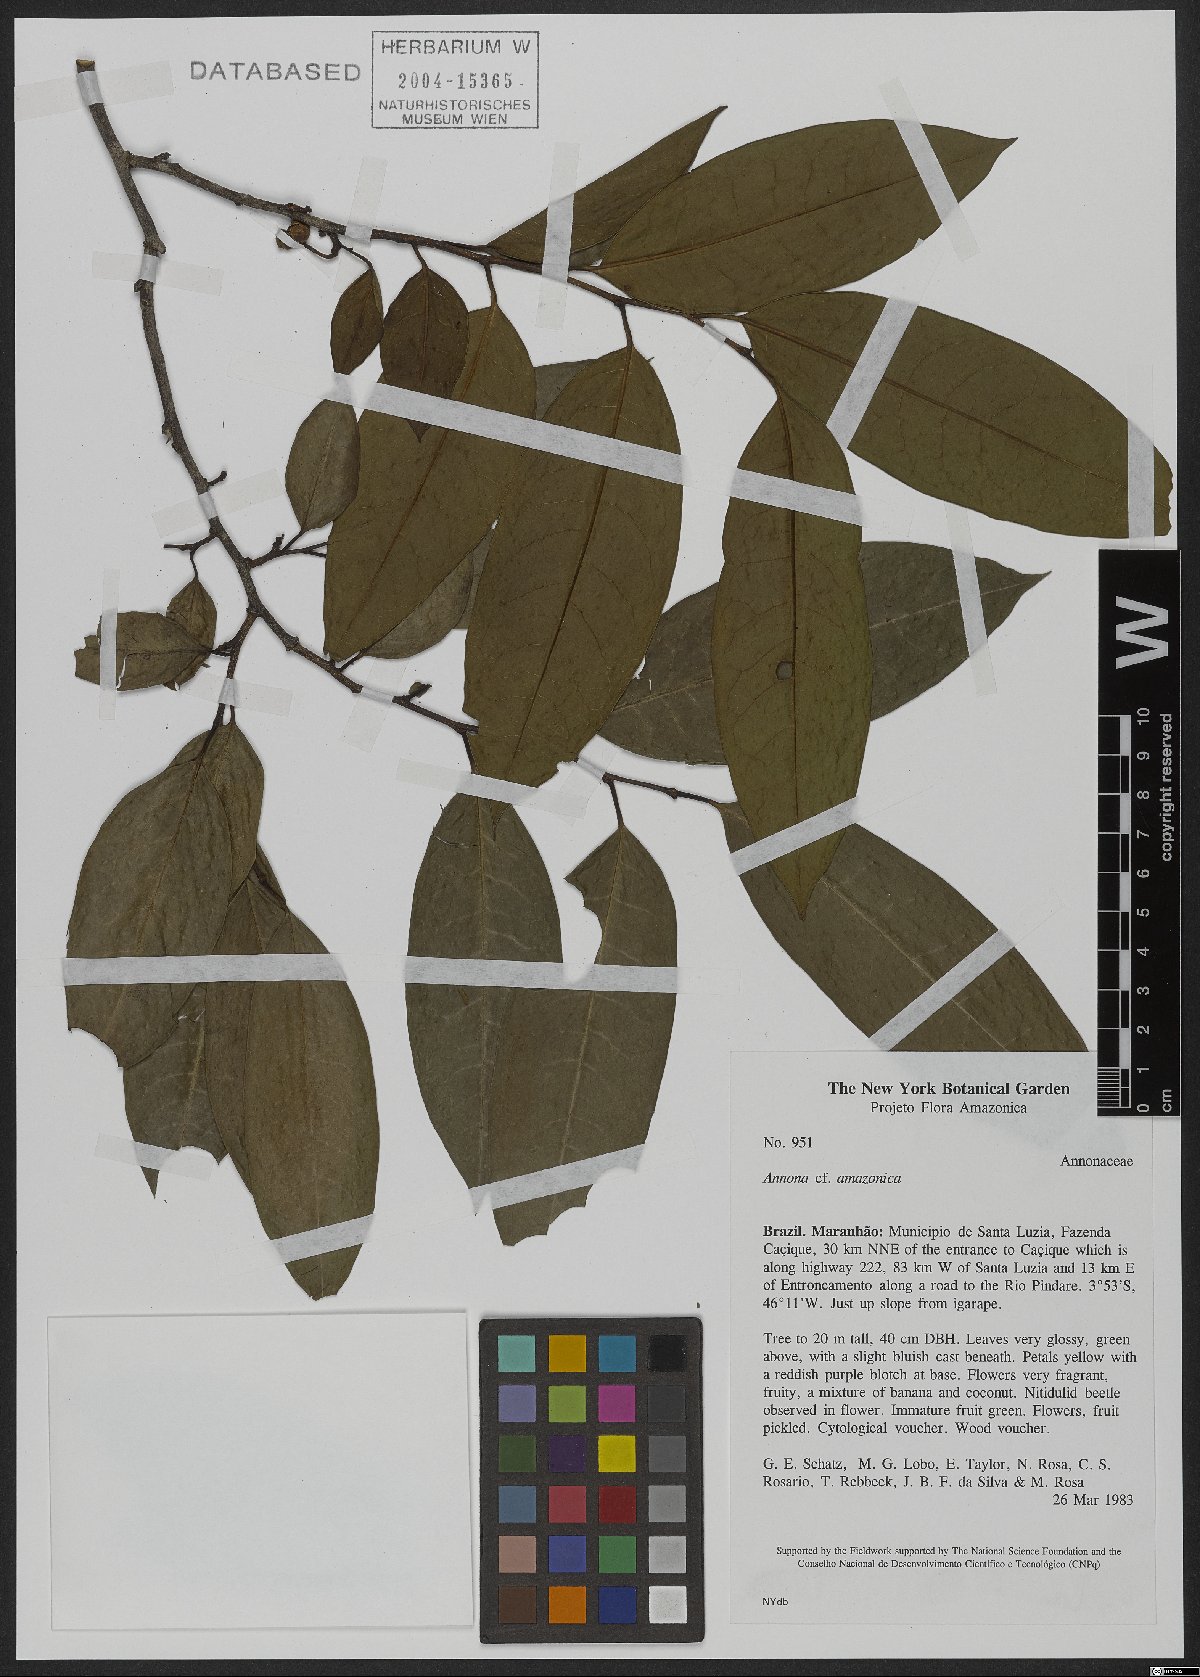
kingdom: Plantae
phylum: Tracheophyta
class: Magnoliopsida
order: Magnoliales
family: Annonaceae
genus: Annona
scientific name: Annona amazonica
